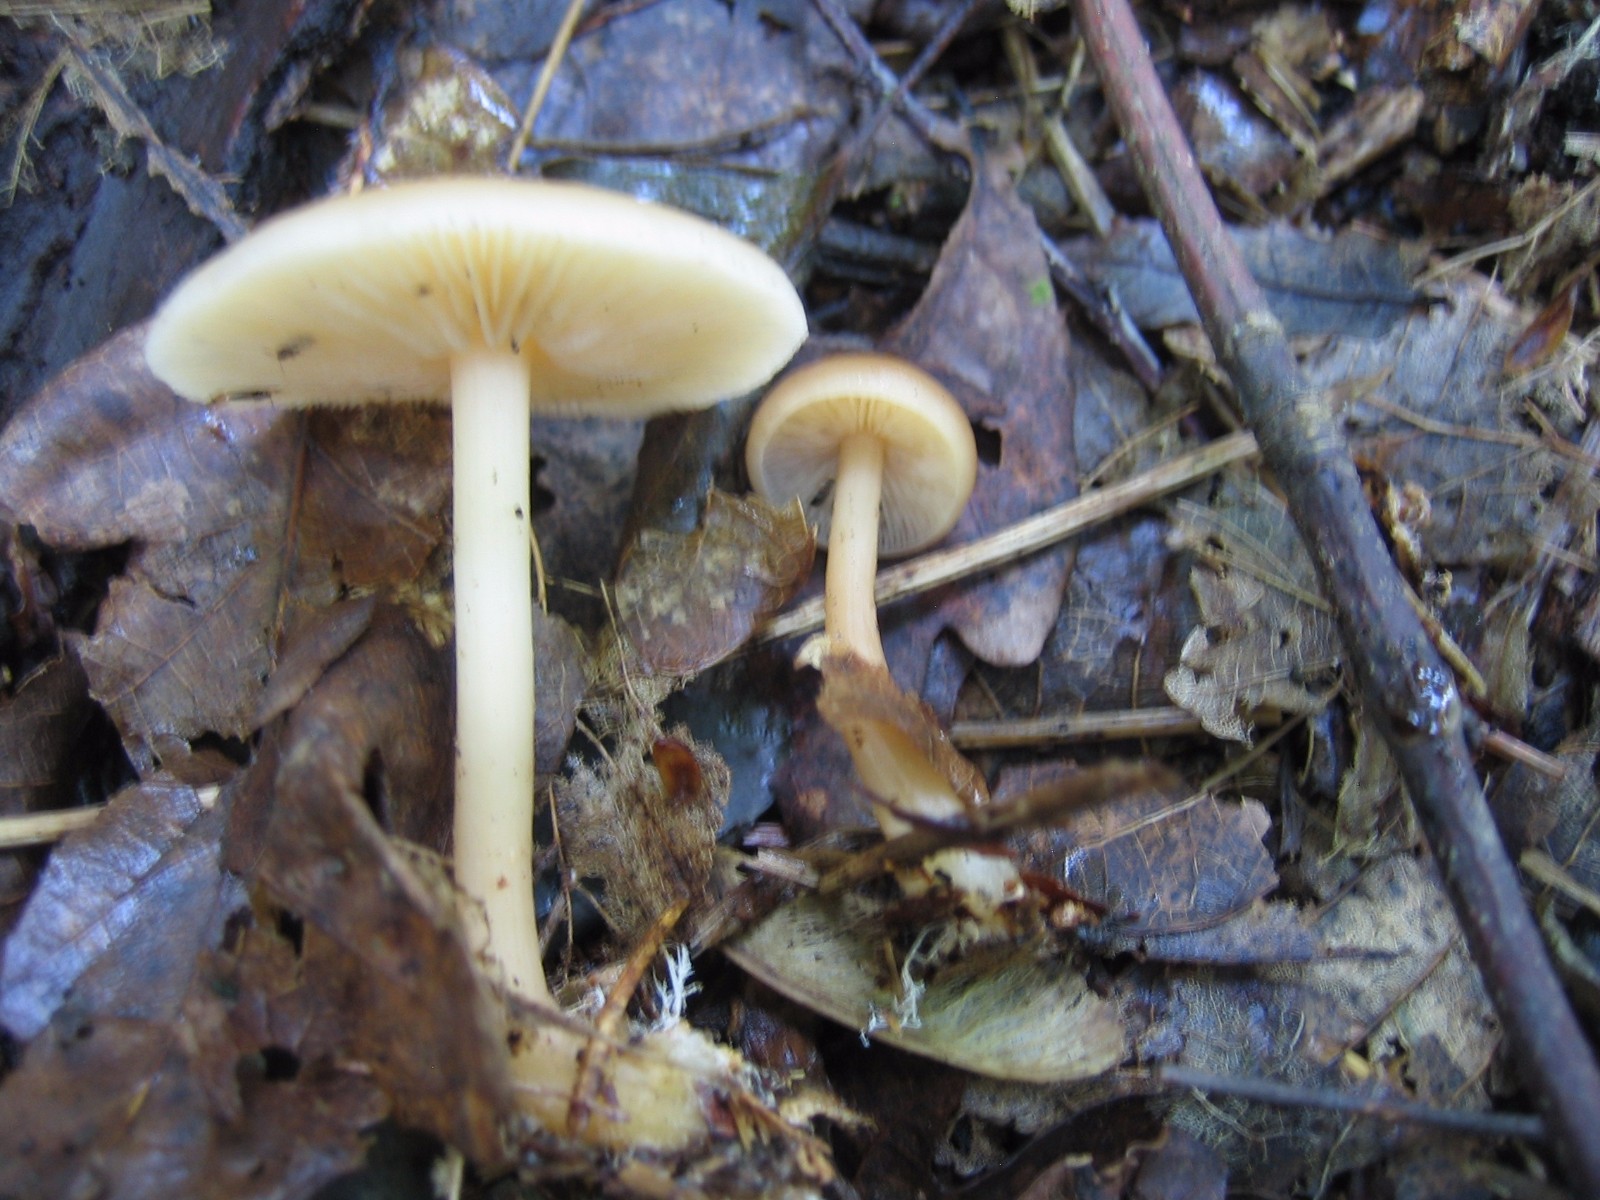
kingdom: Fungi
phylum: Basidiomycota
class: Agaricomycetes
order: Agaricales
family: Omphalotaceae
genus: Gymnopus
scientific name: Gymnopus dryophilus
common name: løv-fladhat
